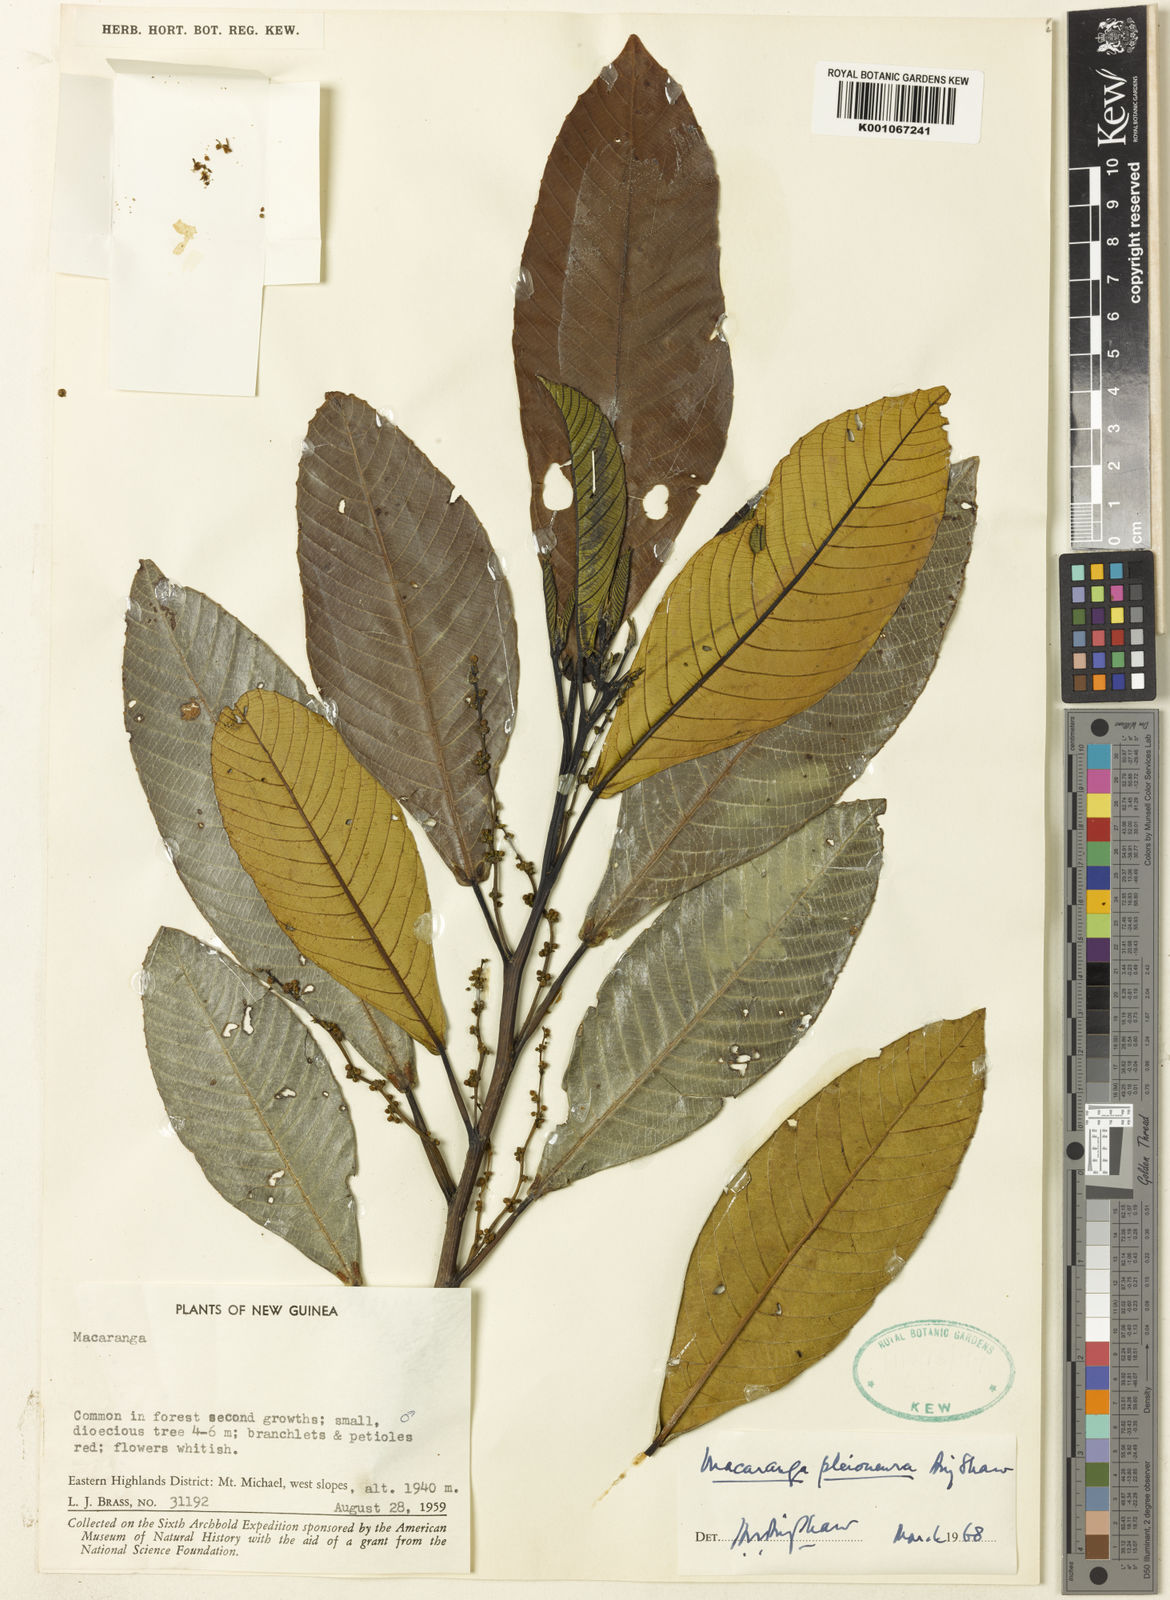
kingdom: Plantae
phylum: Tracheophyta
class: Magnoliopsida
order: Malpighiales
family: Euphorbiaceae
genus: Macaranga
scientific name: Macaranga pleioneura
